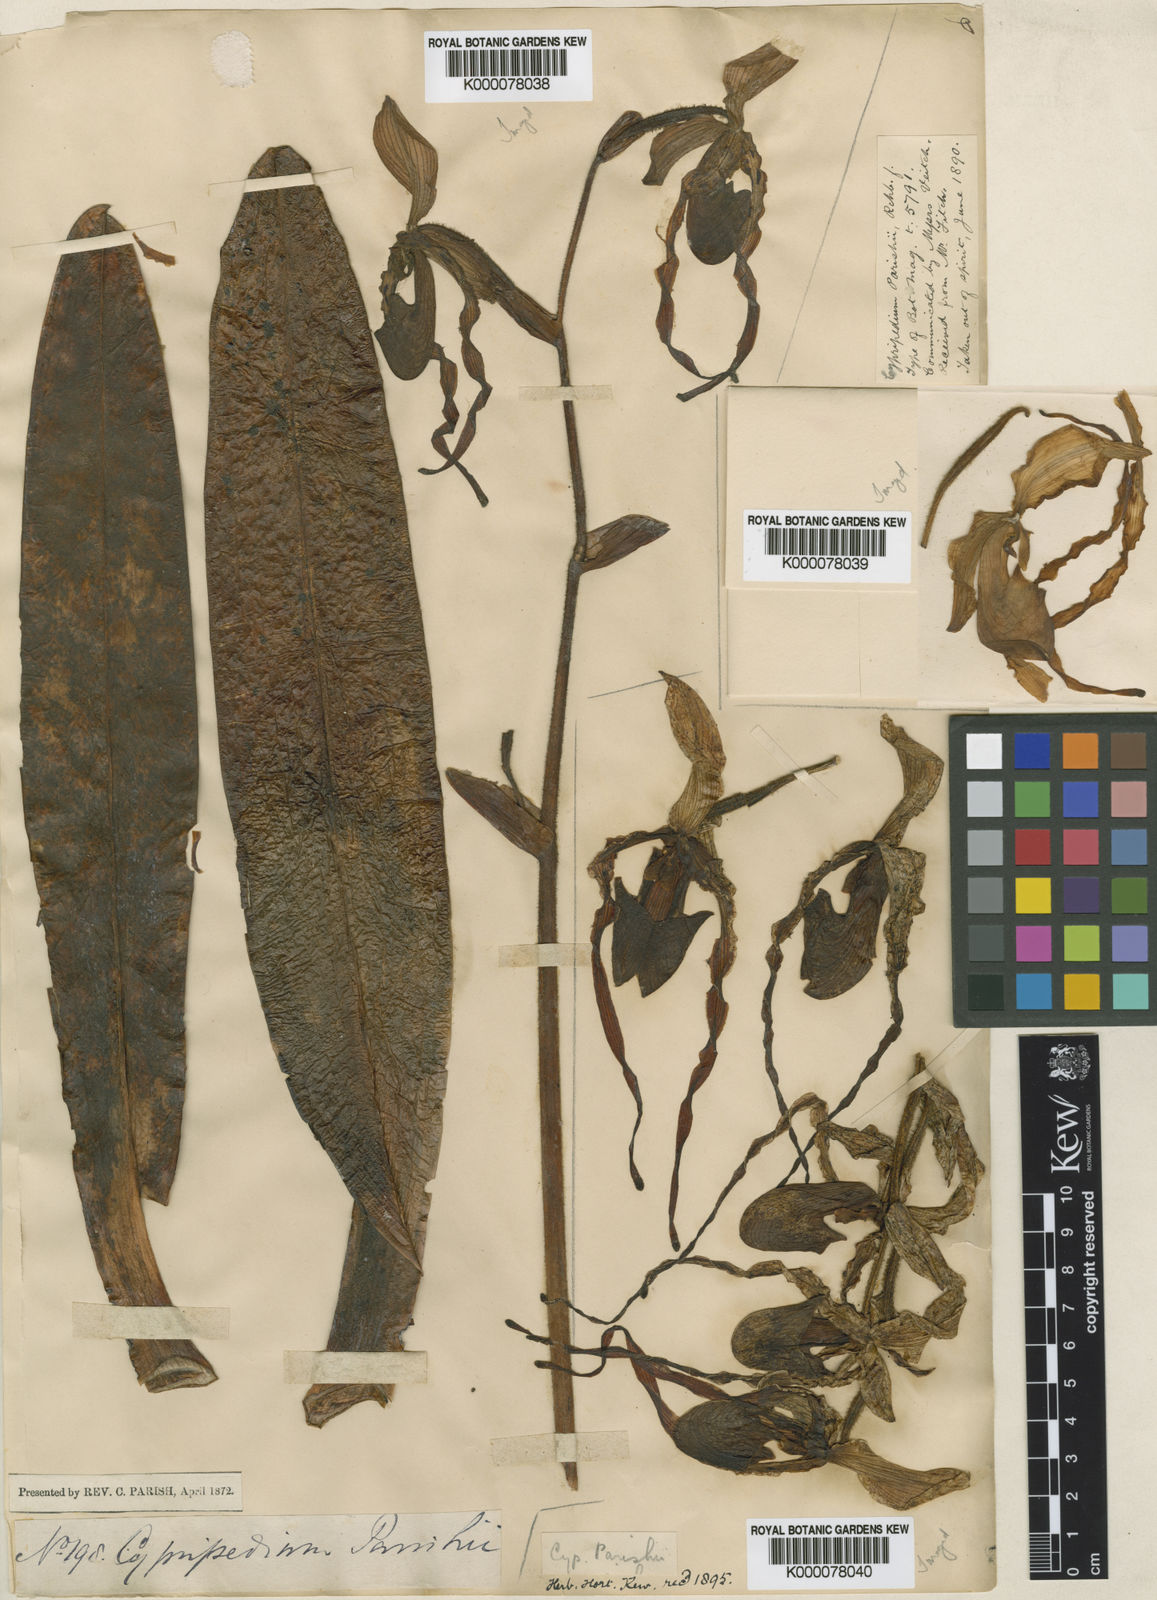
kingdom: Plantae
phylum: Tracheophyta
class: Liliopsida
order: Asparagales
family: Orchidaceae
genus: Paphiopedilum
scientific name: Paphiopedilum parishii
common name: Parish's paphiopedilum
